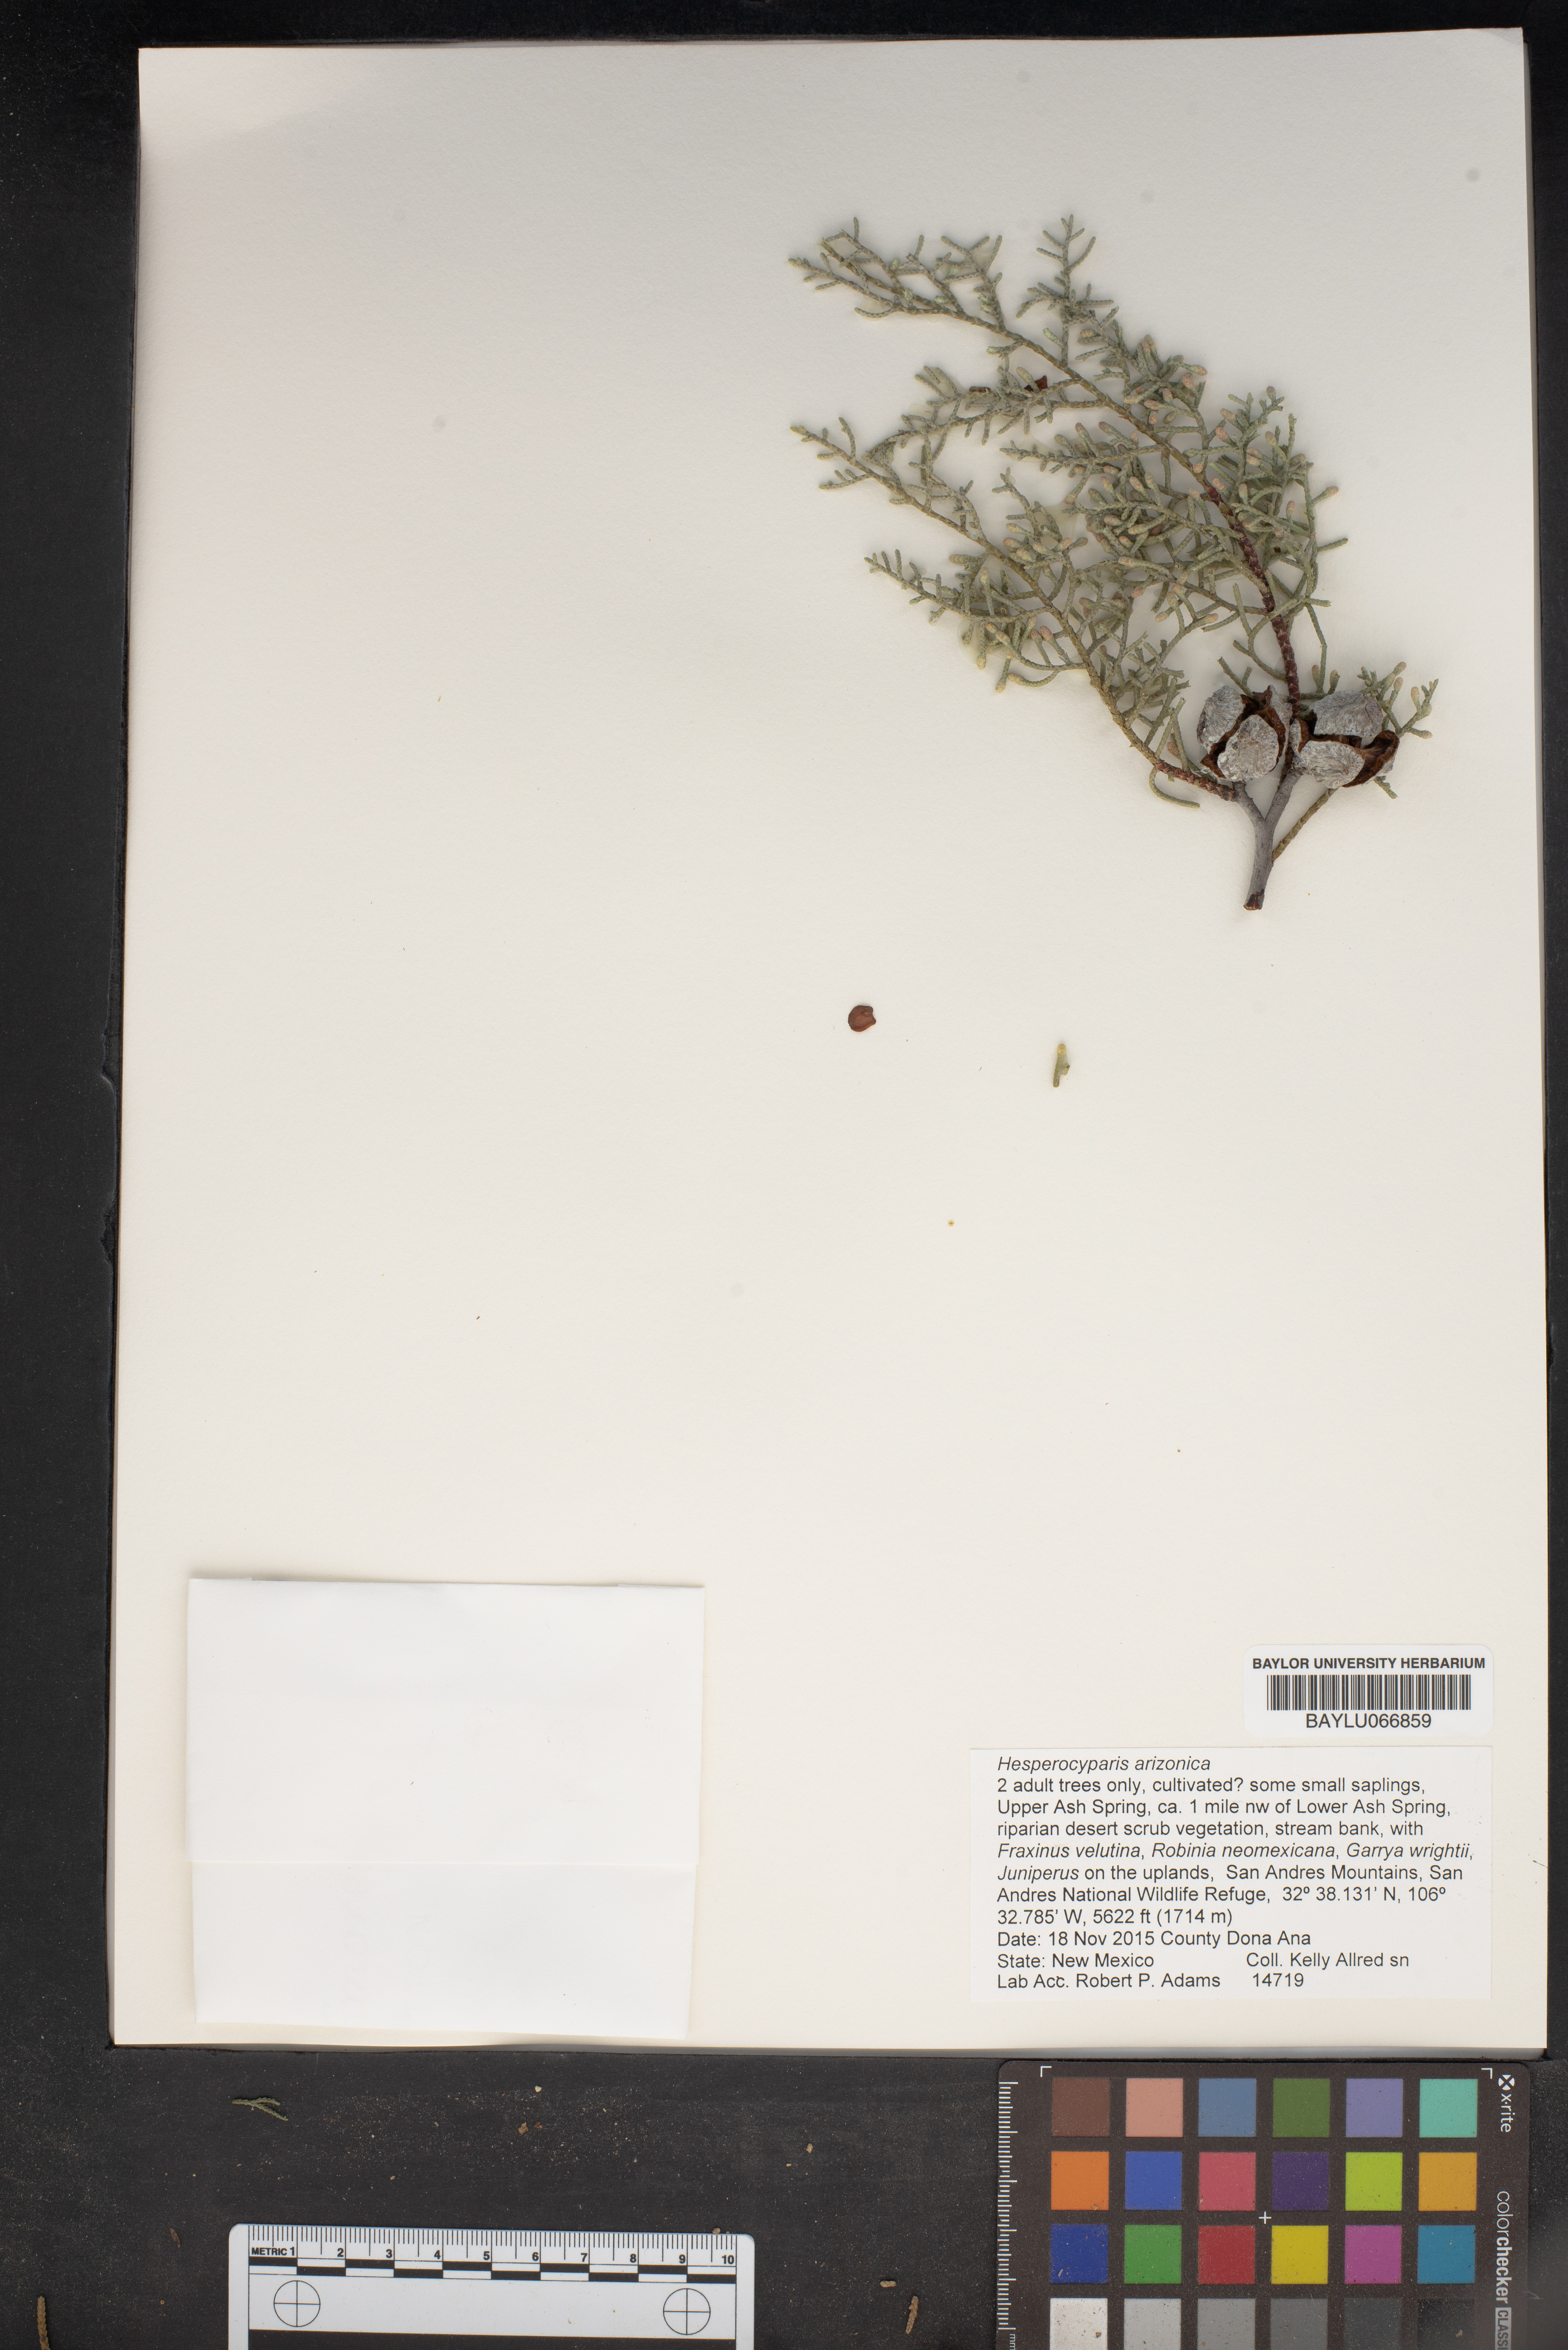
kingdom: Plantae
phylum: Tracheophyta
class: Pinopsida
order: Pinales
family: Cupressaceae
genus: Cupressus
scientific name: Cupressus arizonica
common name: Arizona cypress
